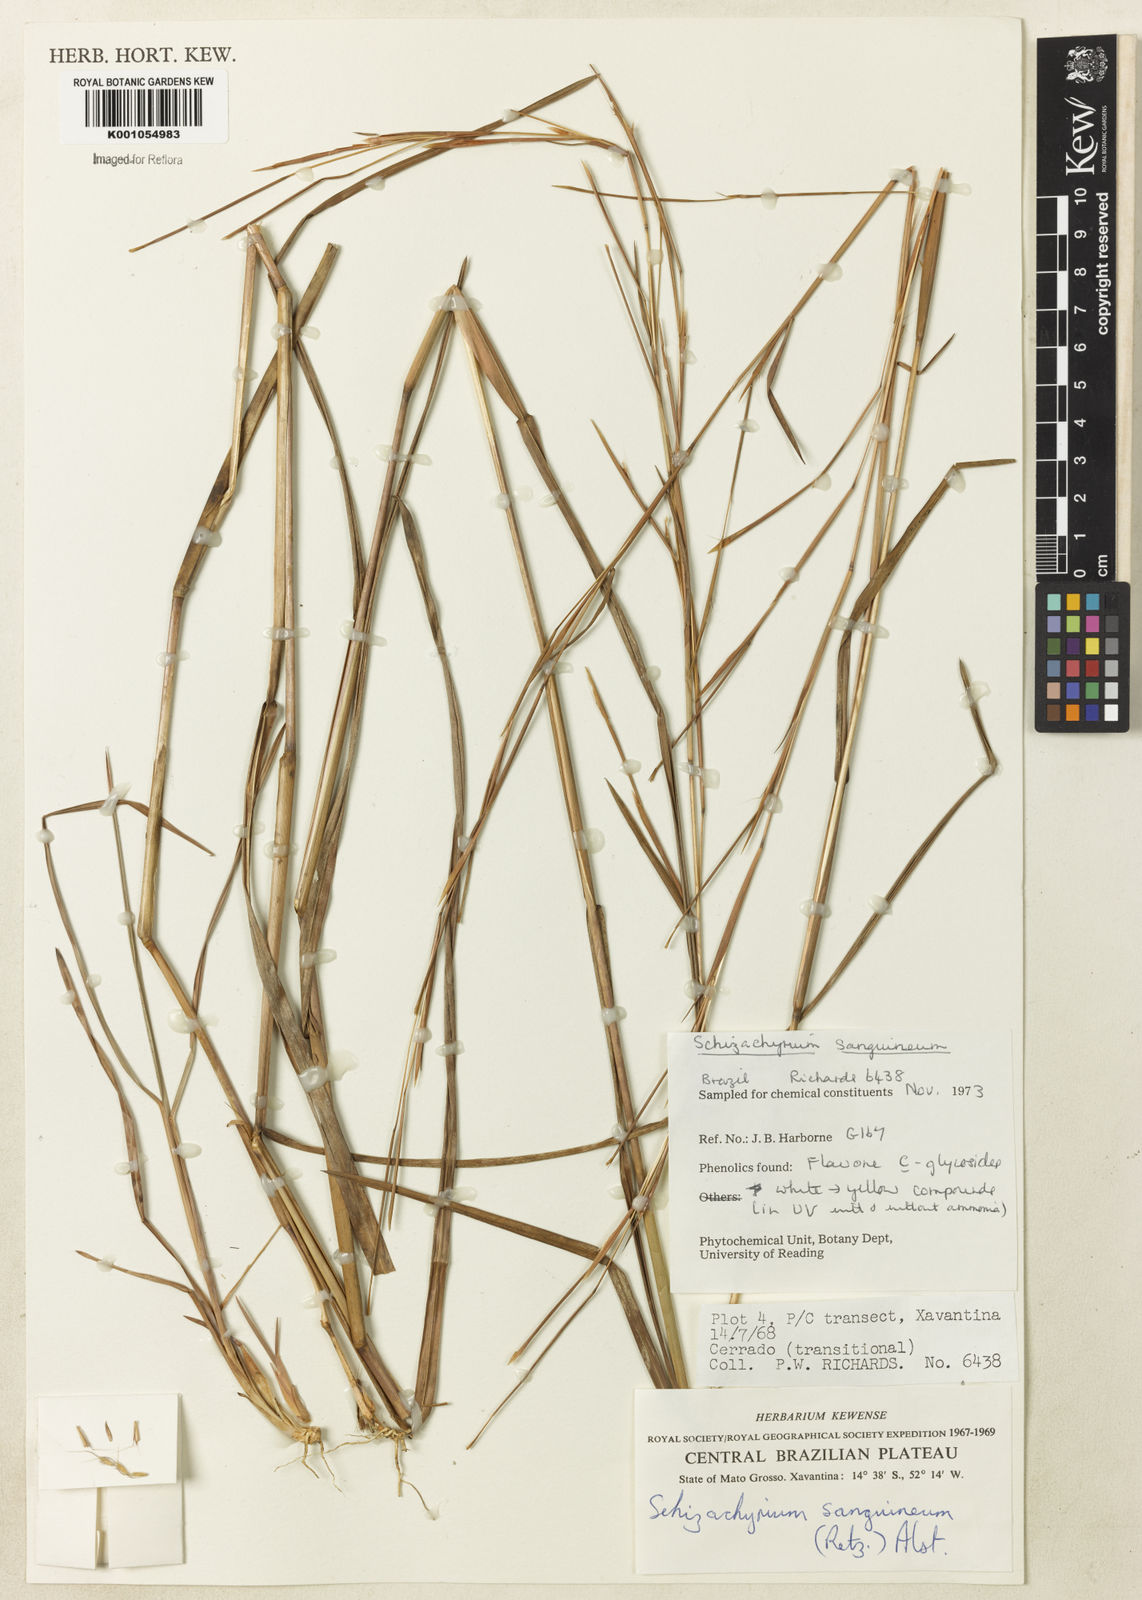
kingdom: Plantae
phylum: Tracheophyta
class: Liliopsida
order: Poales
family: Poaceae
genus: Schizachyrium
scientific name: Schizachyrium sanguineum
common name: Crimson bluestem
